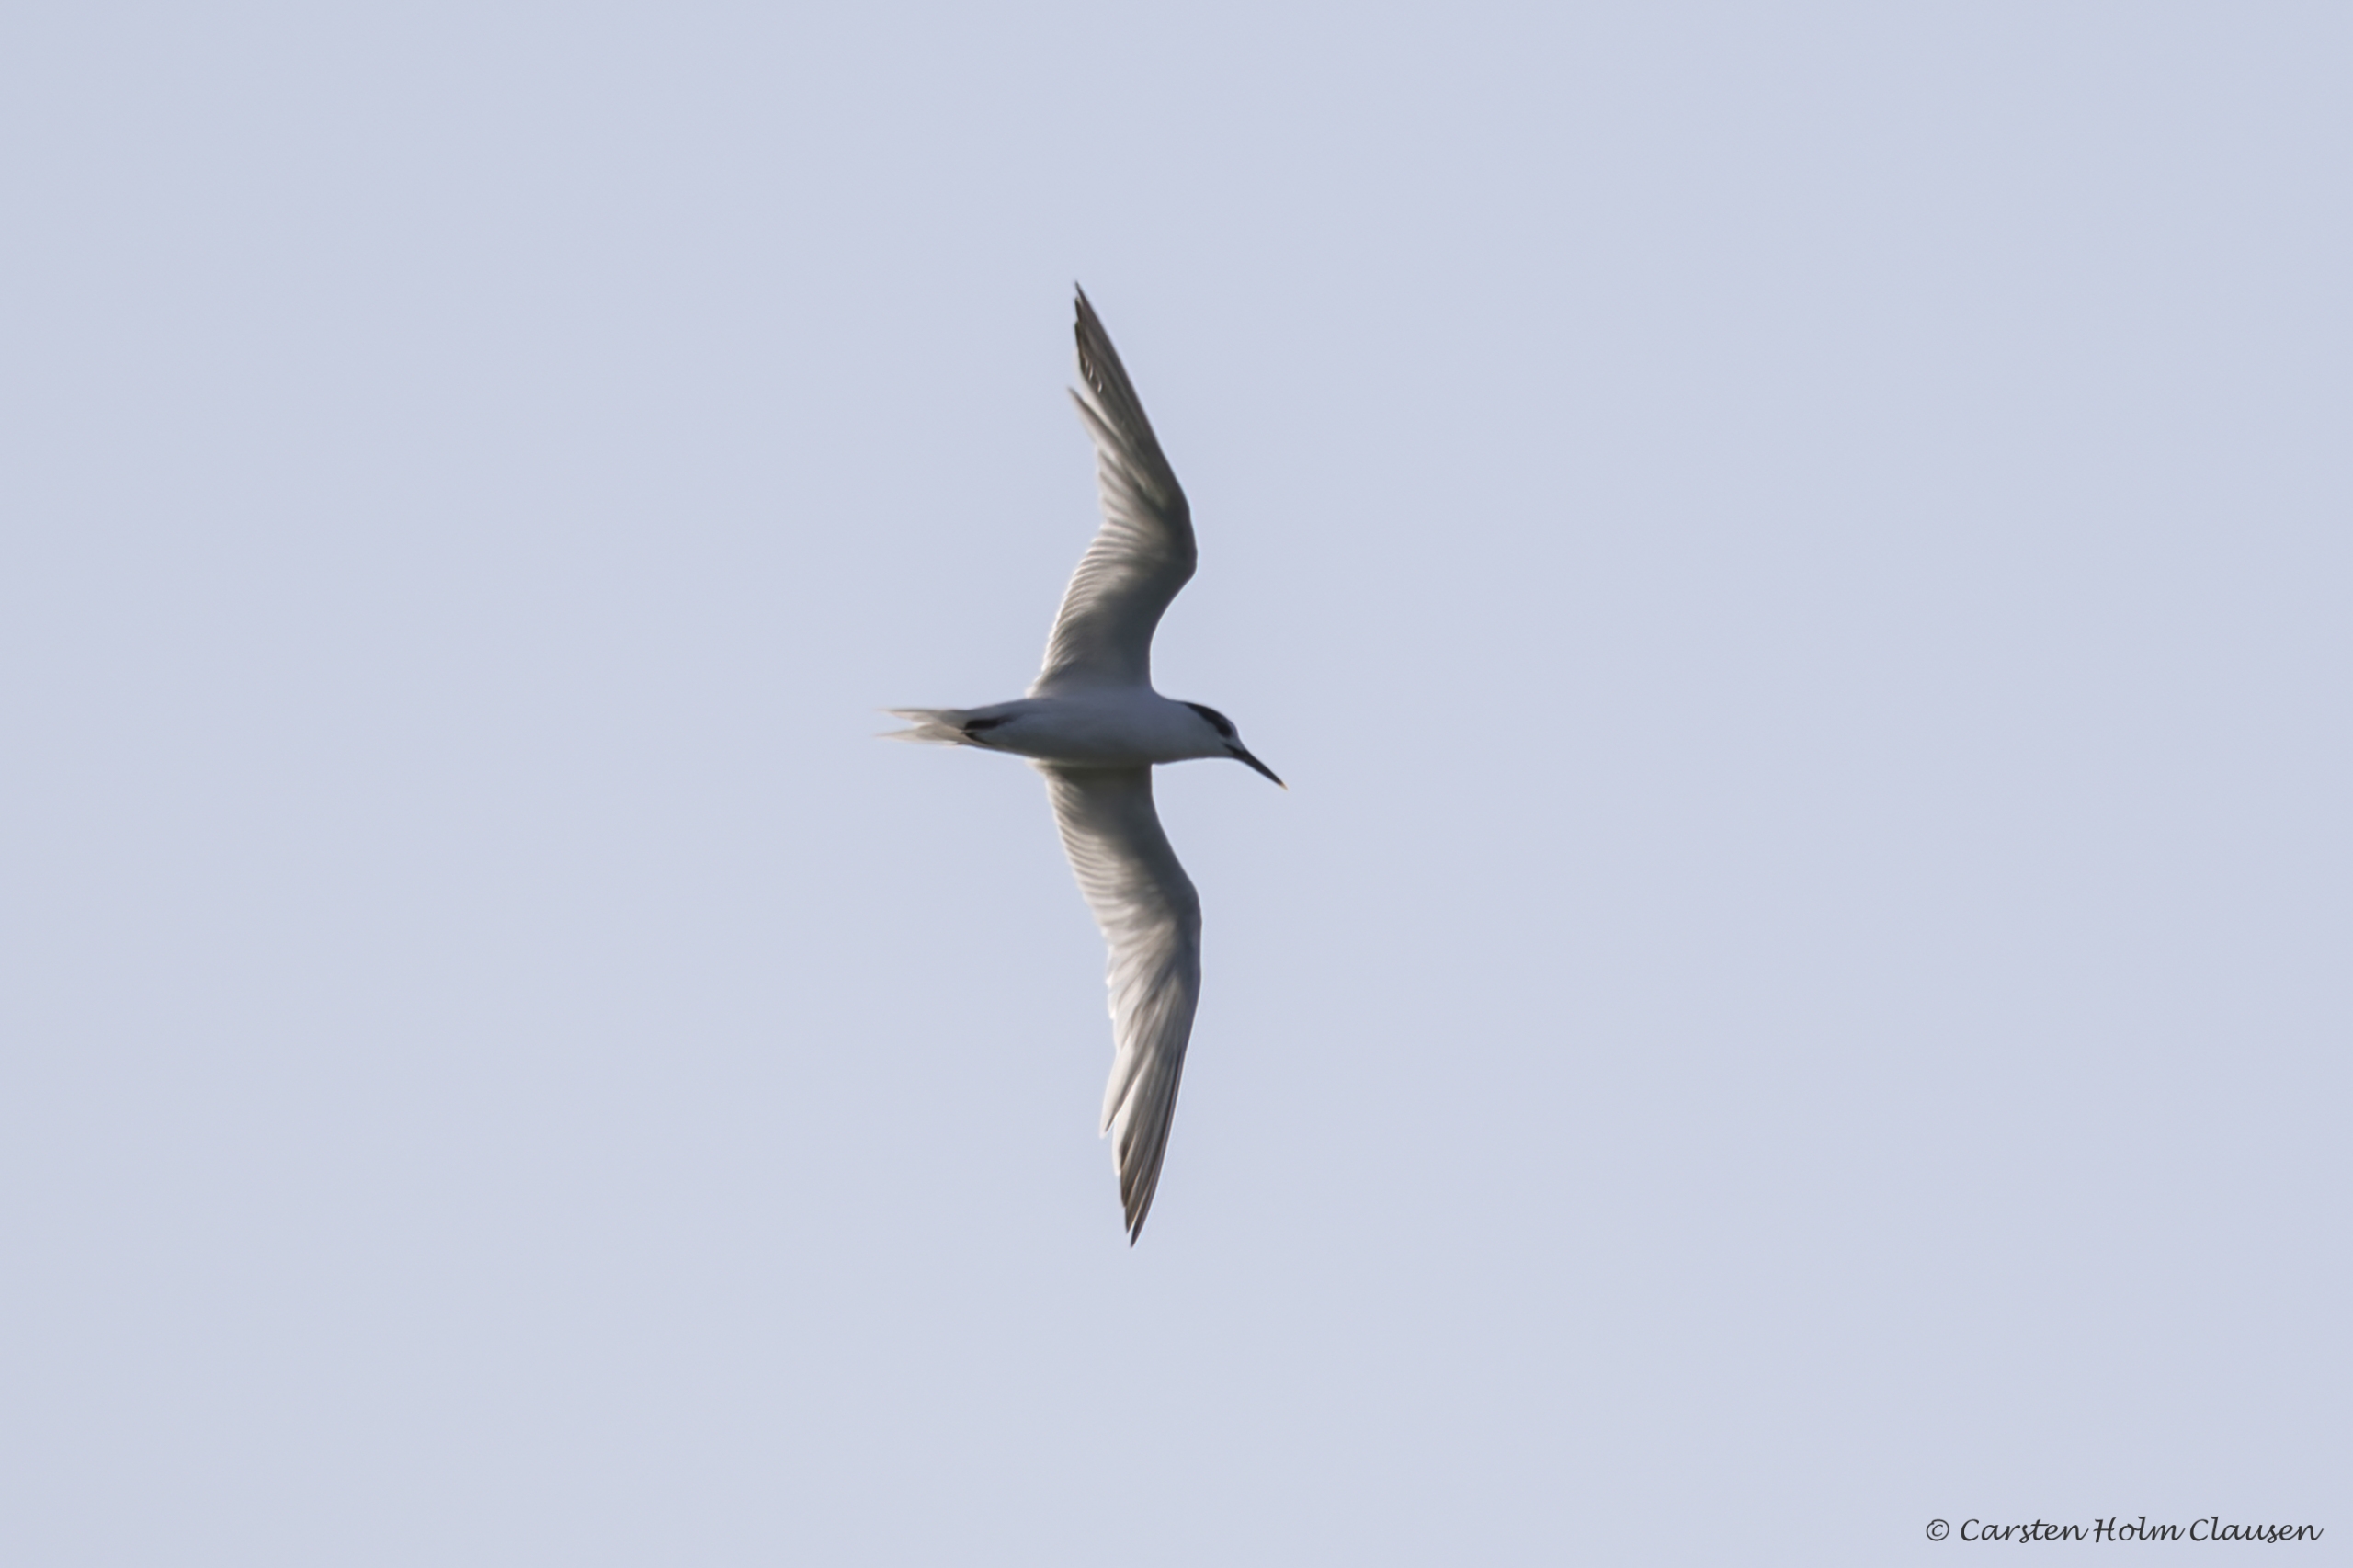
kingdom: Animalia
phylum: Chordata
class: Aves
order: Charadriiformes
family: Laridae
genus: Thalasseus
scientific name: Thalasseus sandvicensis
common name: Splitterne
